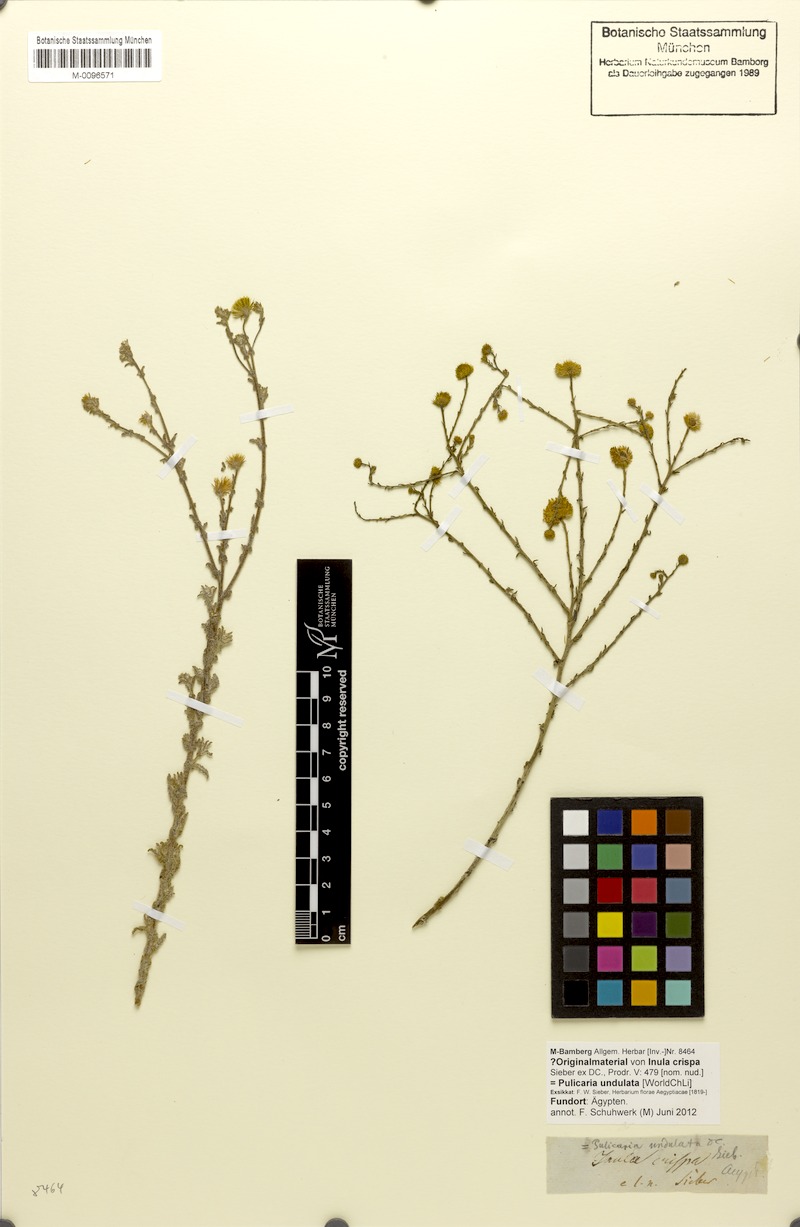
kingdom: Plantae
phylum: Tracheophyta
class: Magnoliopsida
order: Asterales
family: Asteraceae
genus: Pulicaria
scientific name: Pulicaria undulata
